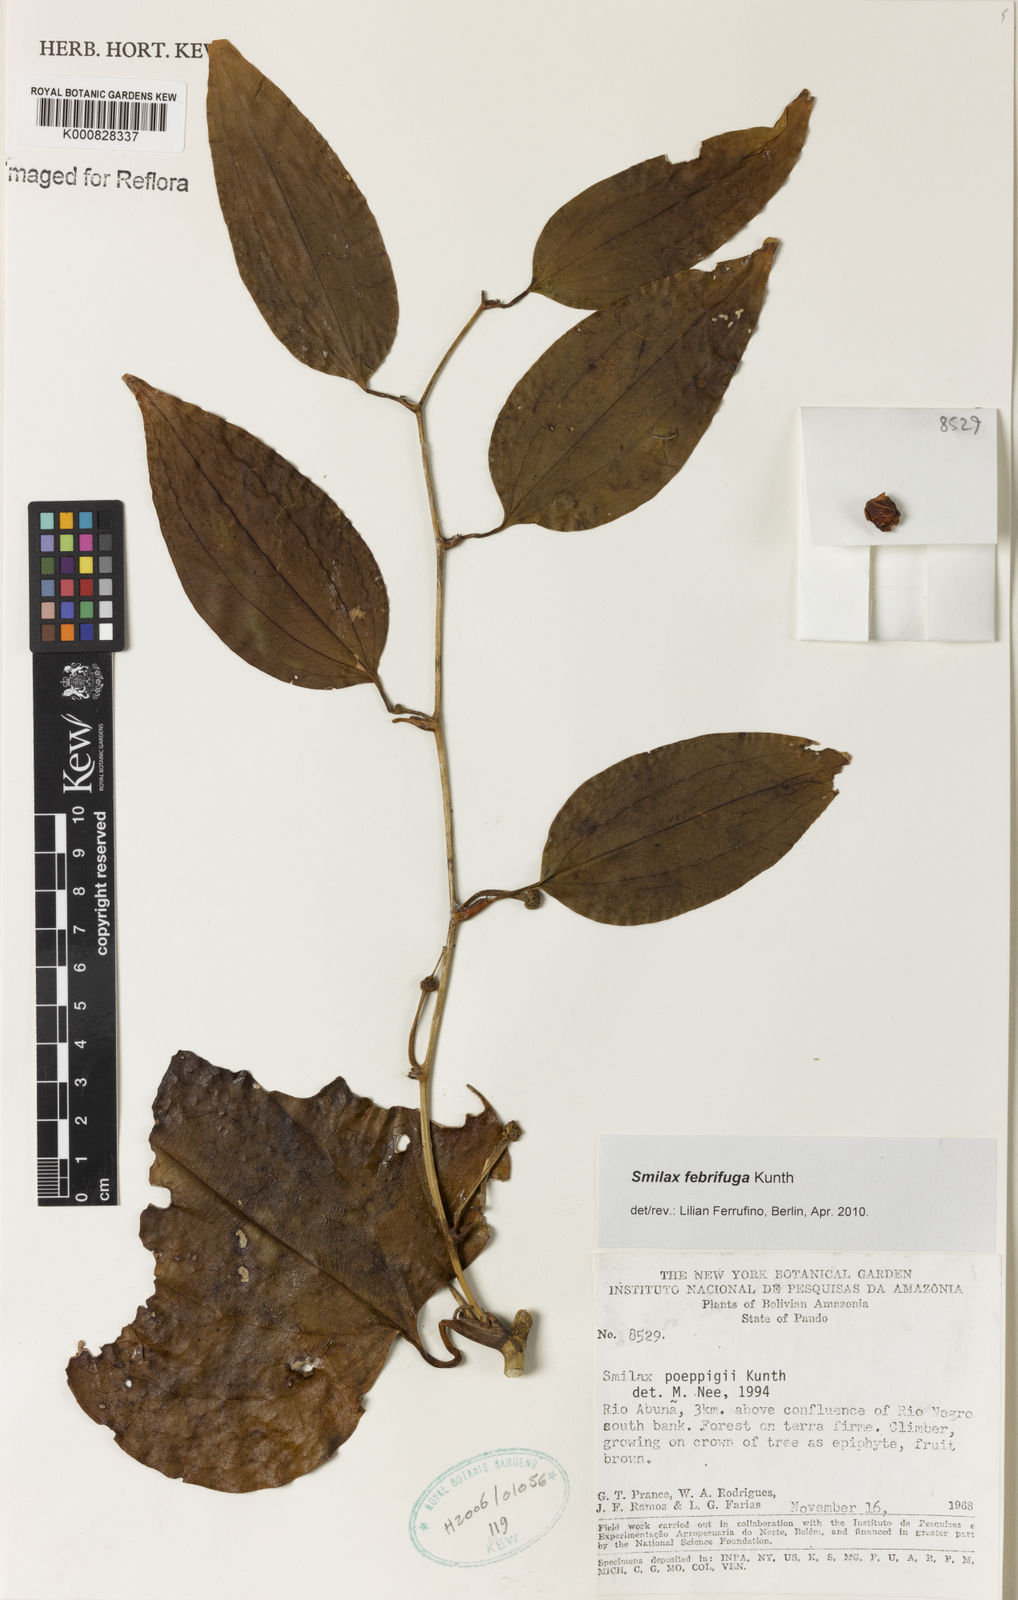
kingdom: Plantae
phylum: Tracheophyta
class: Liliopsida
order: Liliales
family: Smilacaceae
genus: Smilax
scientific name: Smilax purhampuy
